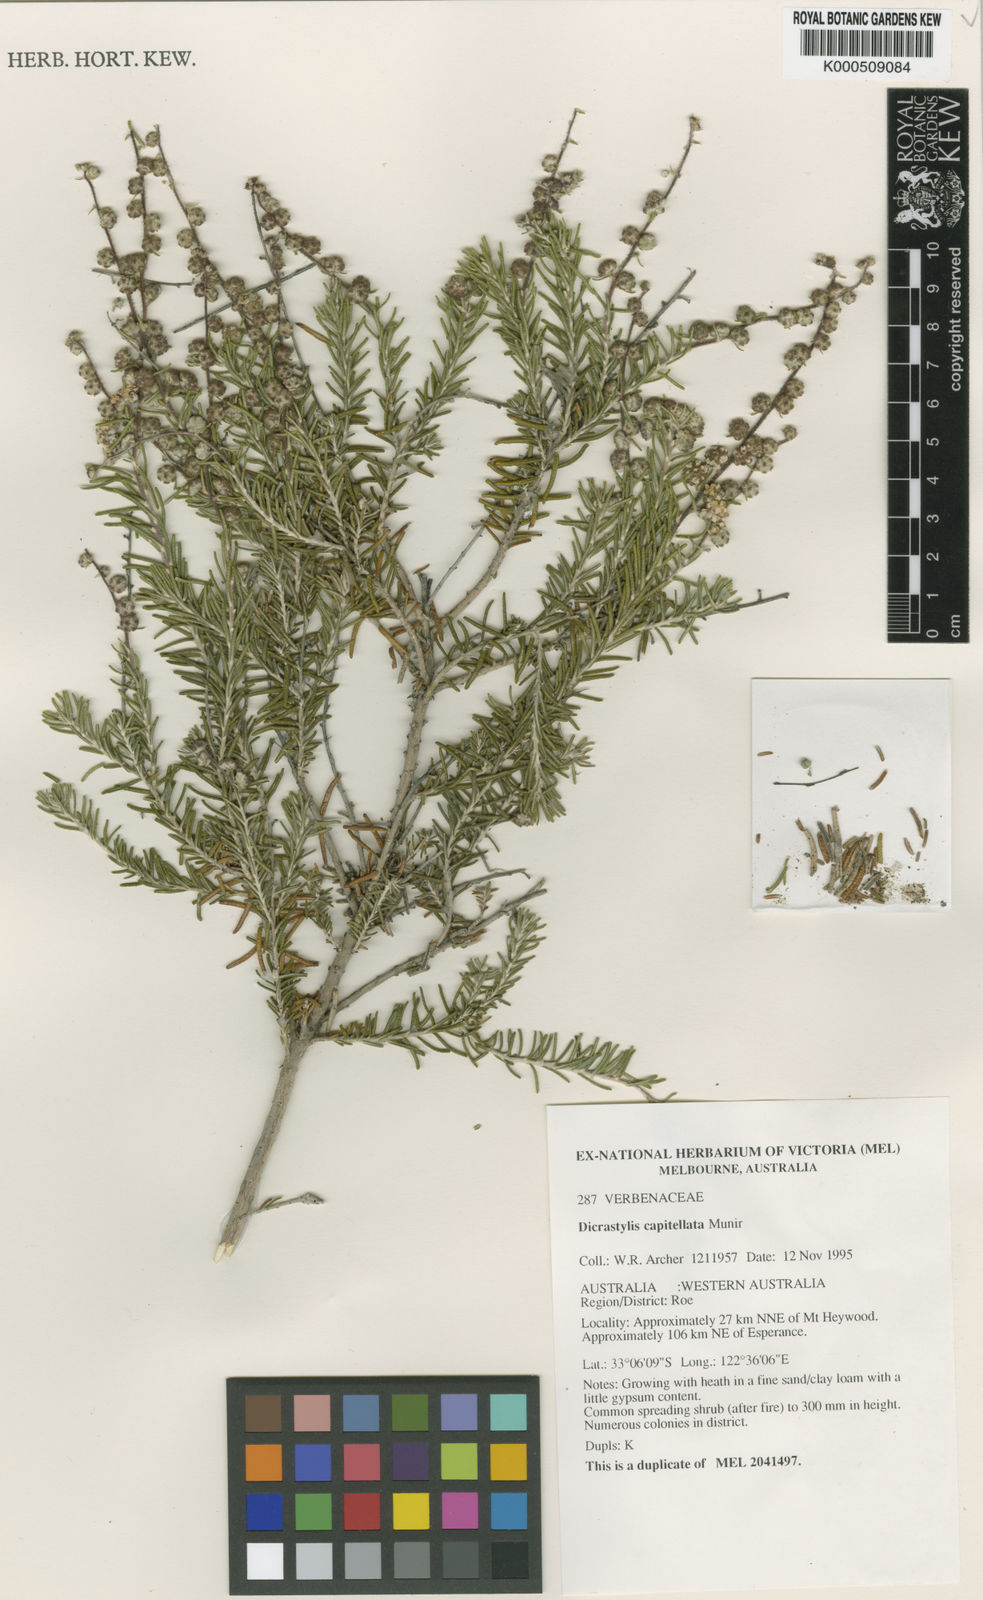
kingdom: Plantae
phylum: Tracheophyta
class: Magnoliopsida
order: Lamiales
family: Lamiaceae
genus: Dicrastylis
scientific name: Dicrastylis capitellata
